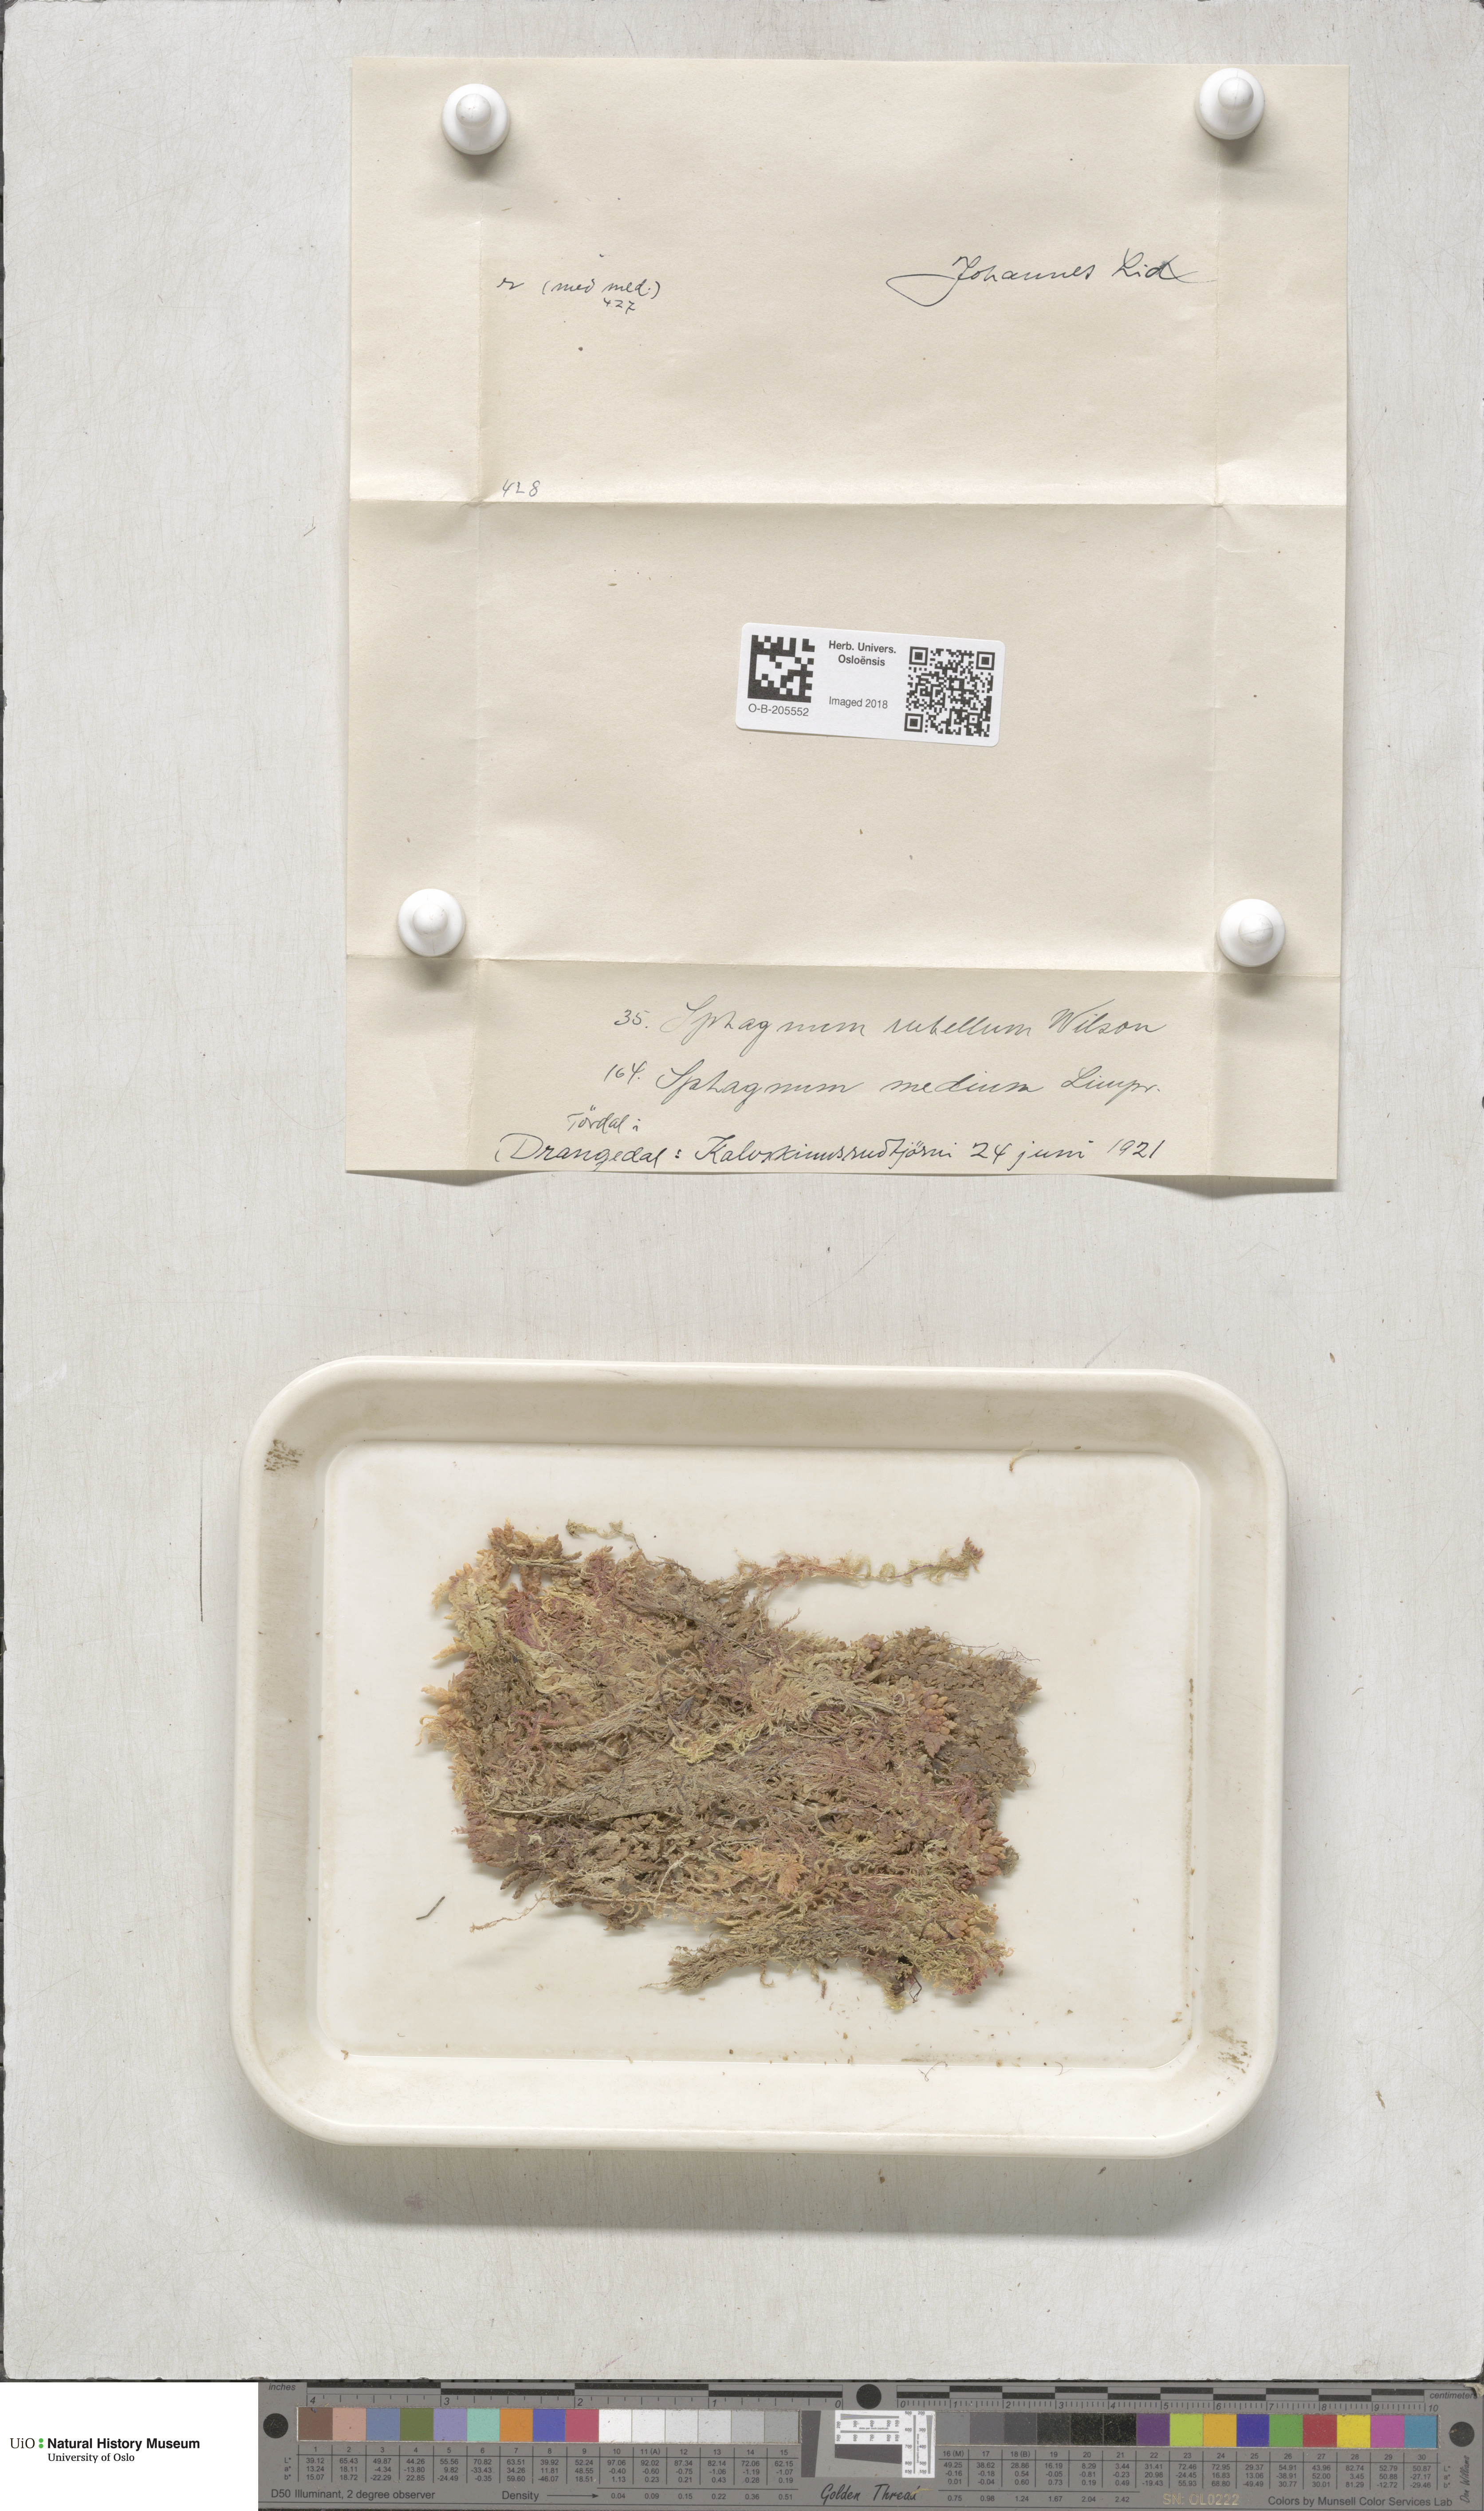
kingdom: Plantae
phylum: Bryophyta
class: Sphagnopsida
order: Sphagnales
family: Sphagnaceae
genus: Sphagnum
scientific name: Sphagnum rubellum
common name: Red peat moss
